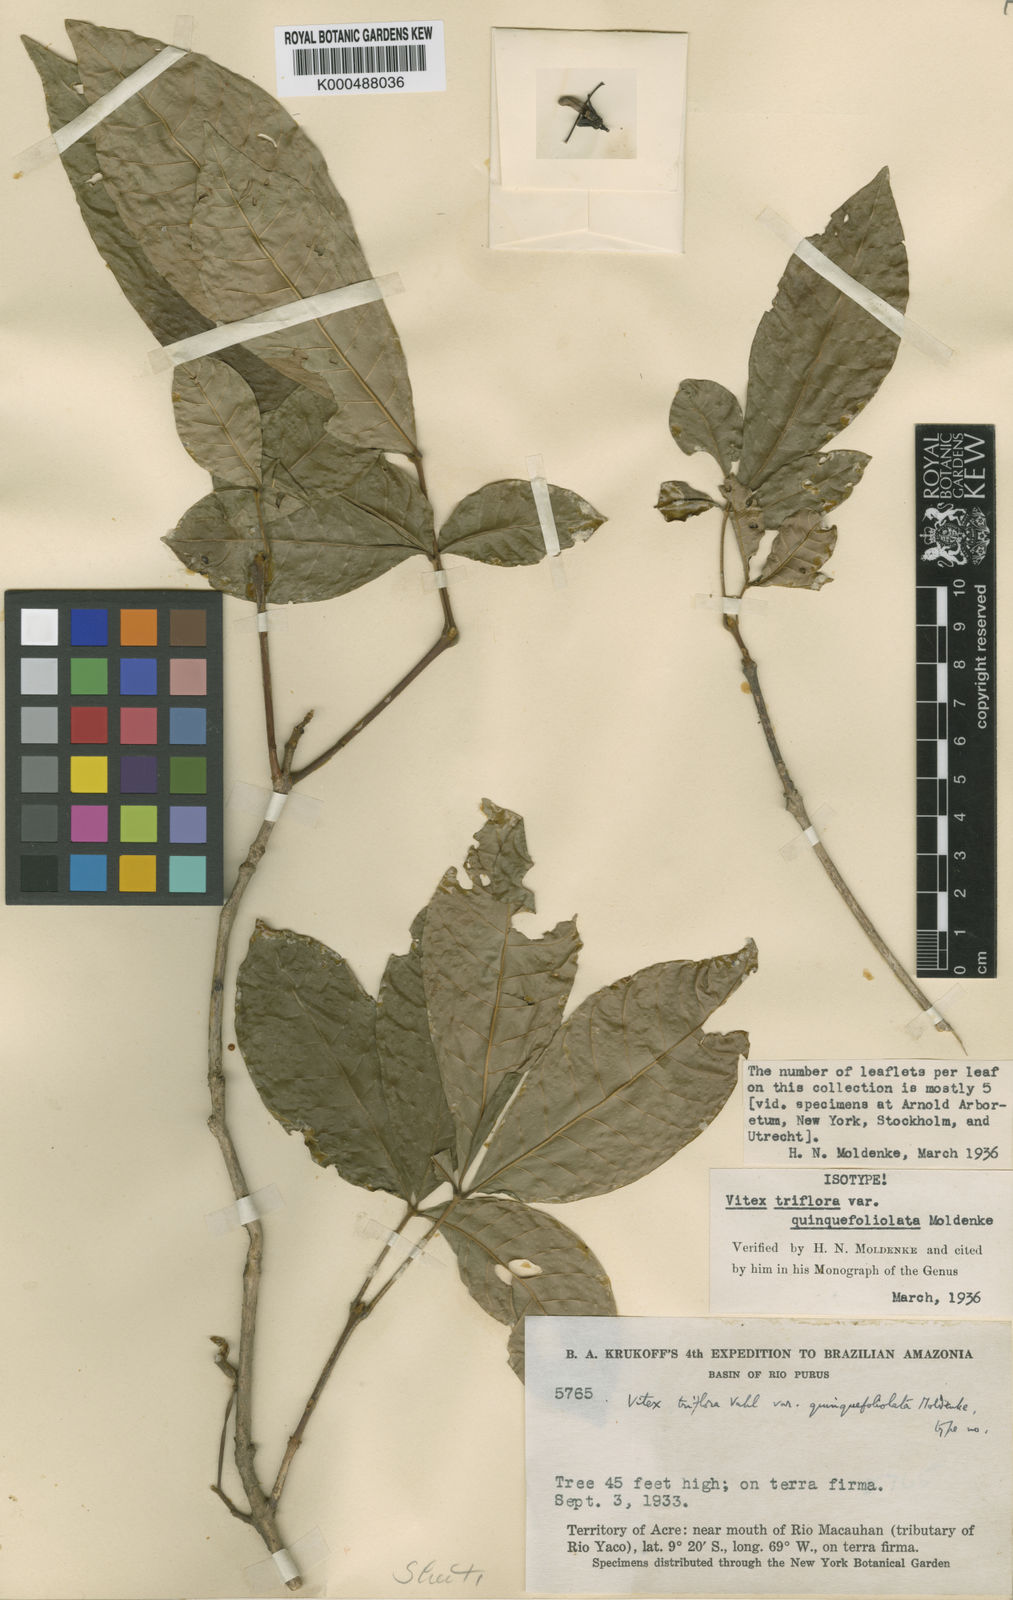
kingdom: Plantae
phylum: Tracheophyta
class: Magnoliopsida
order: Lamiales
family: Lamiaceae
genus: Vitex
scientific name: Vitex triflora
